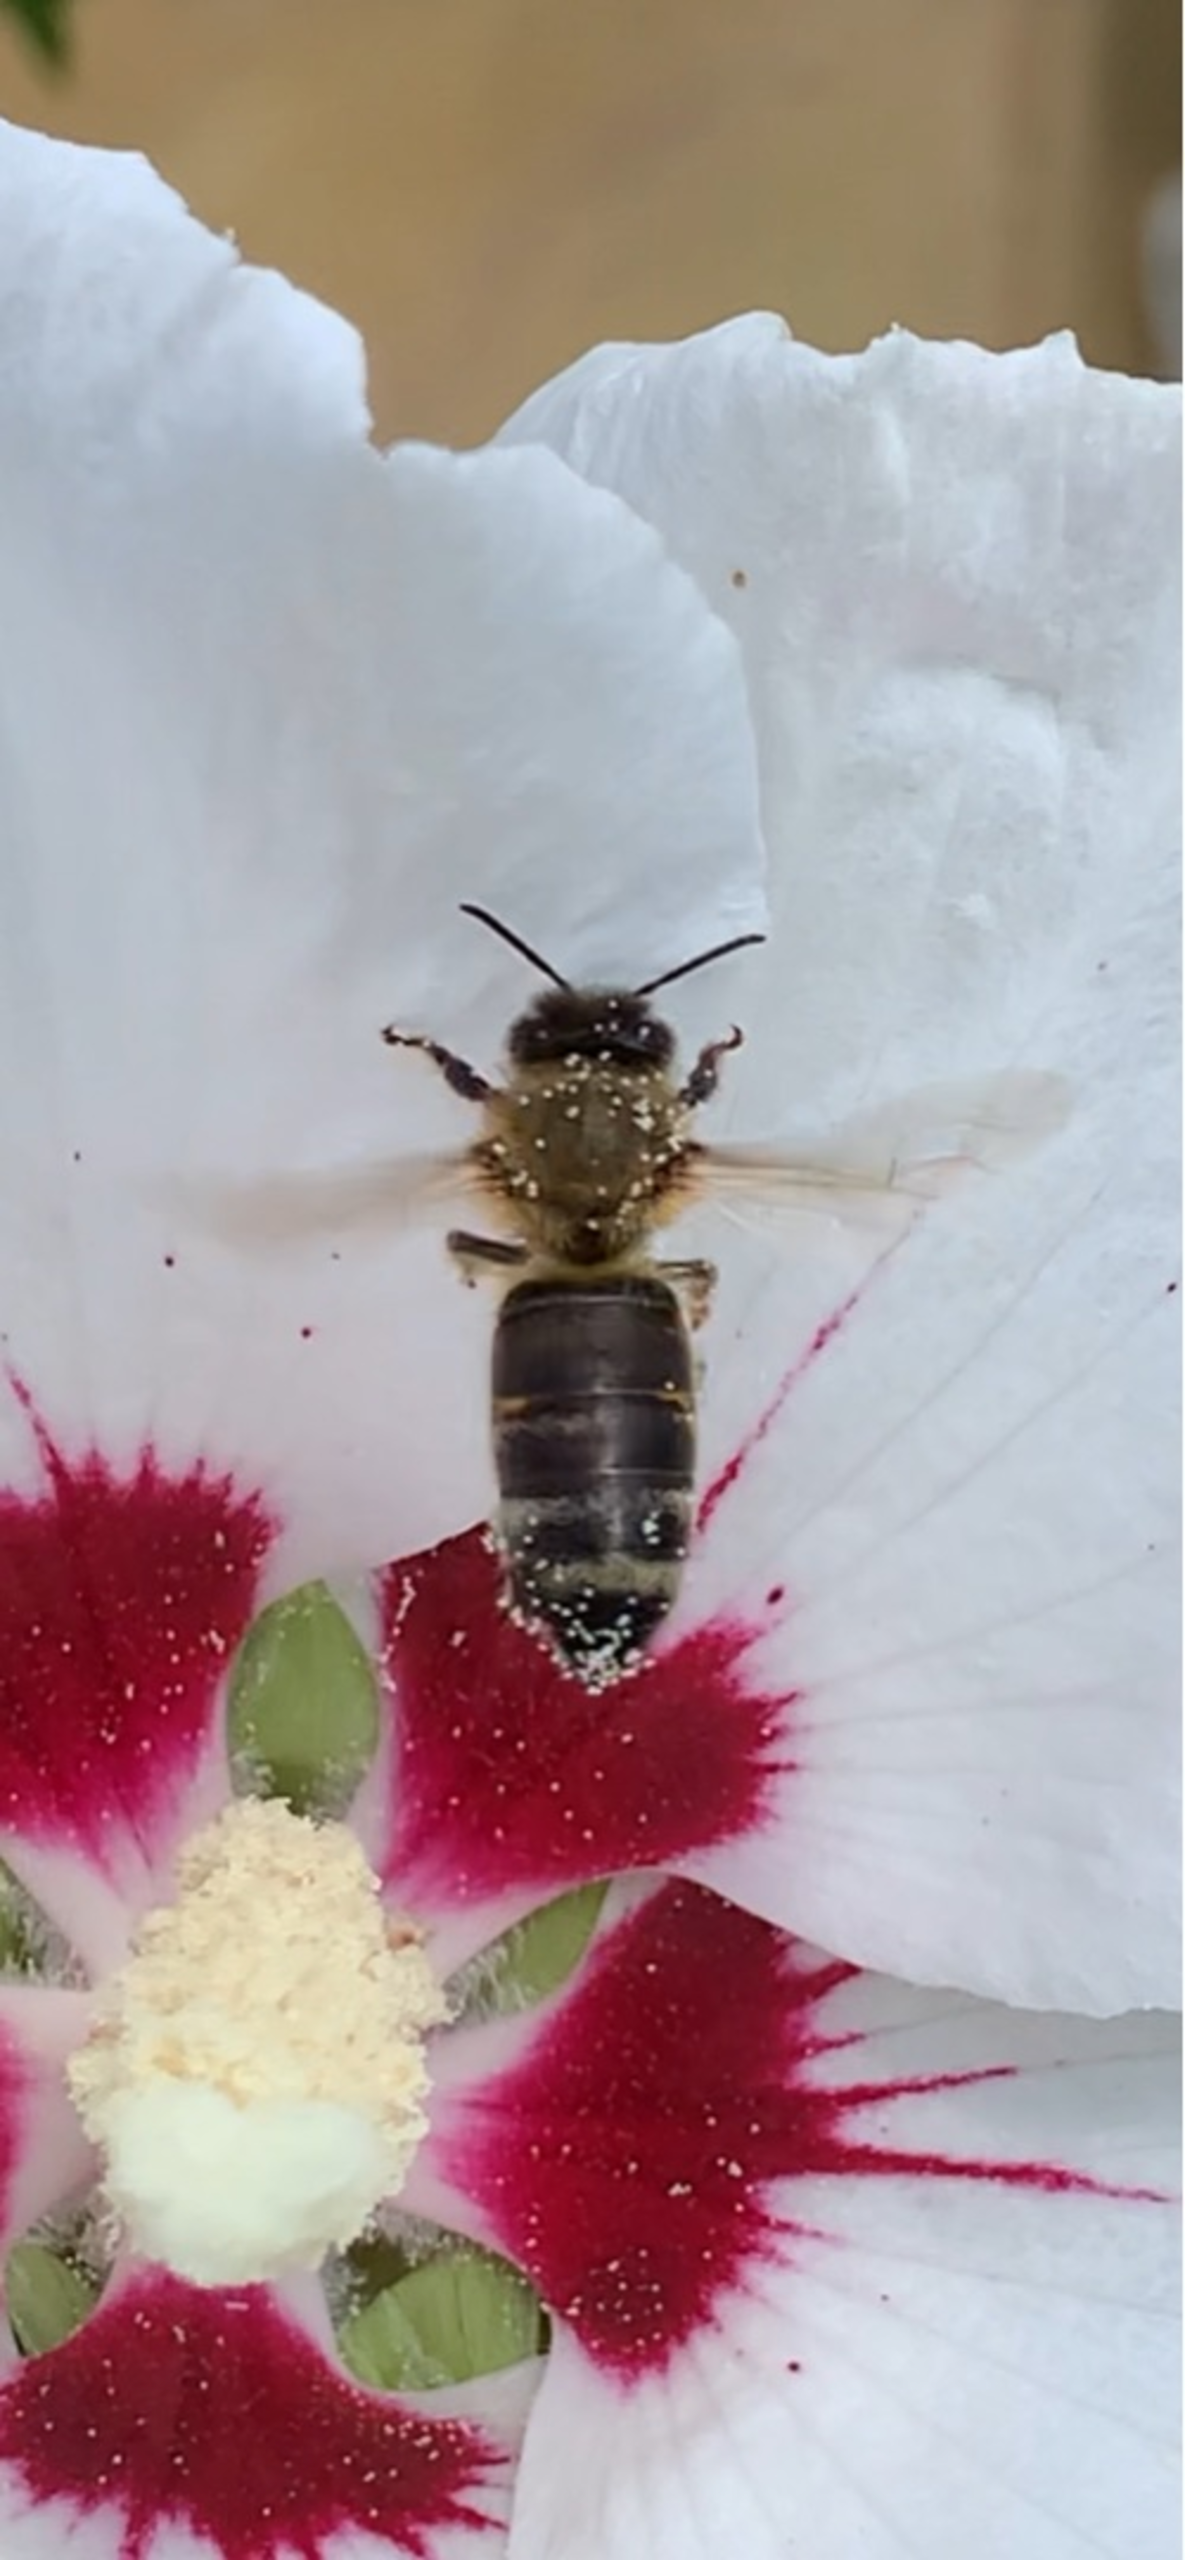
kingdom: Animalia
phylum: Arthropoda
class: Insecta
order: Hymenoptera
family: Apidae
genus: Apis
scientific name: Apis mellifera
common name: Honningbi
